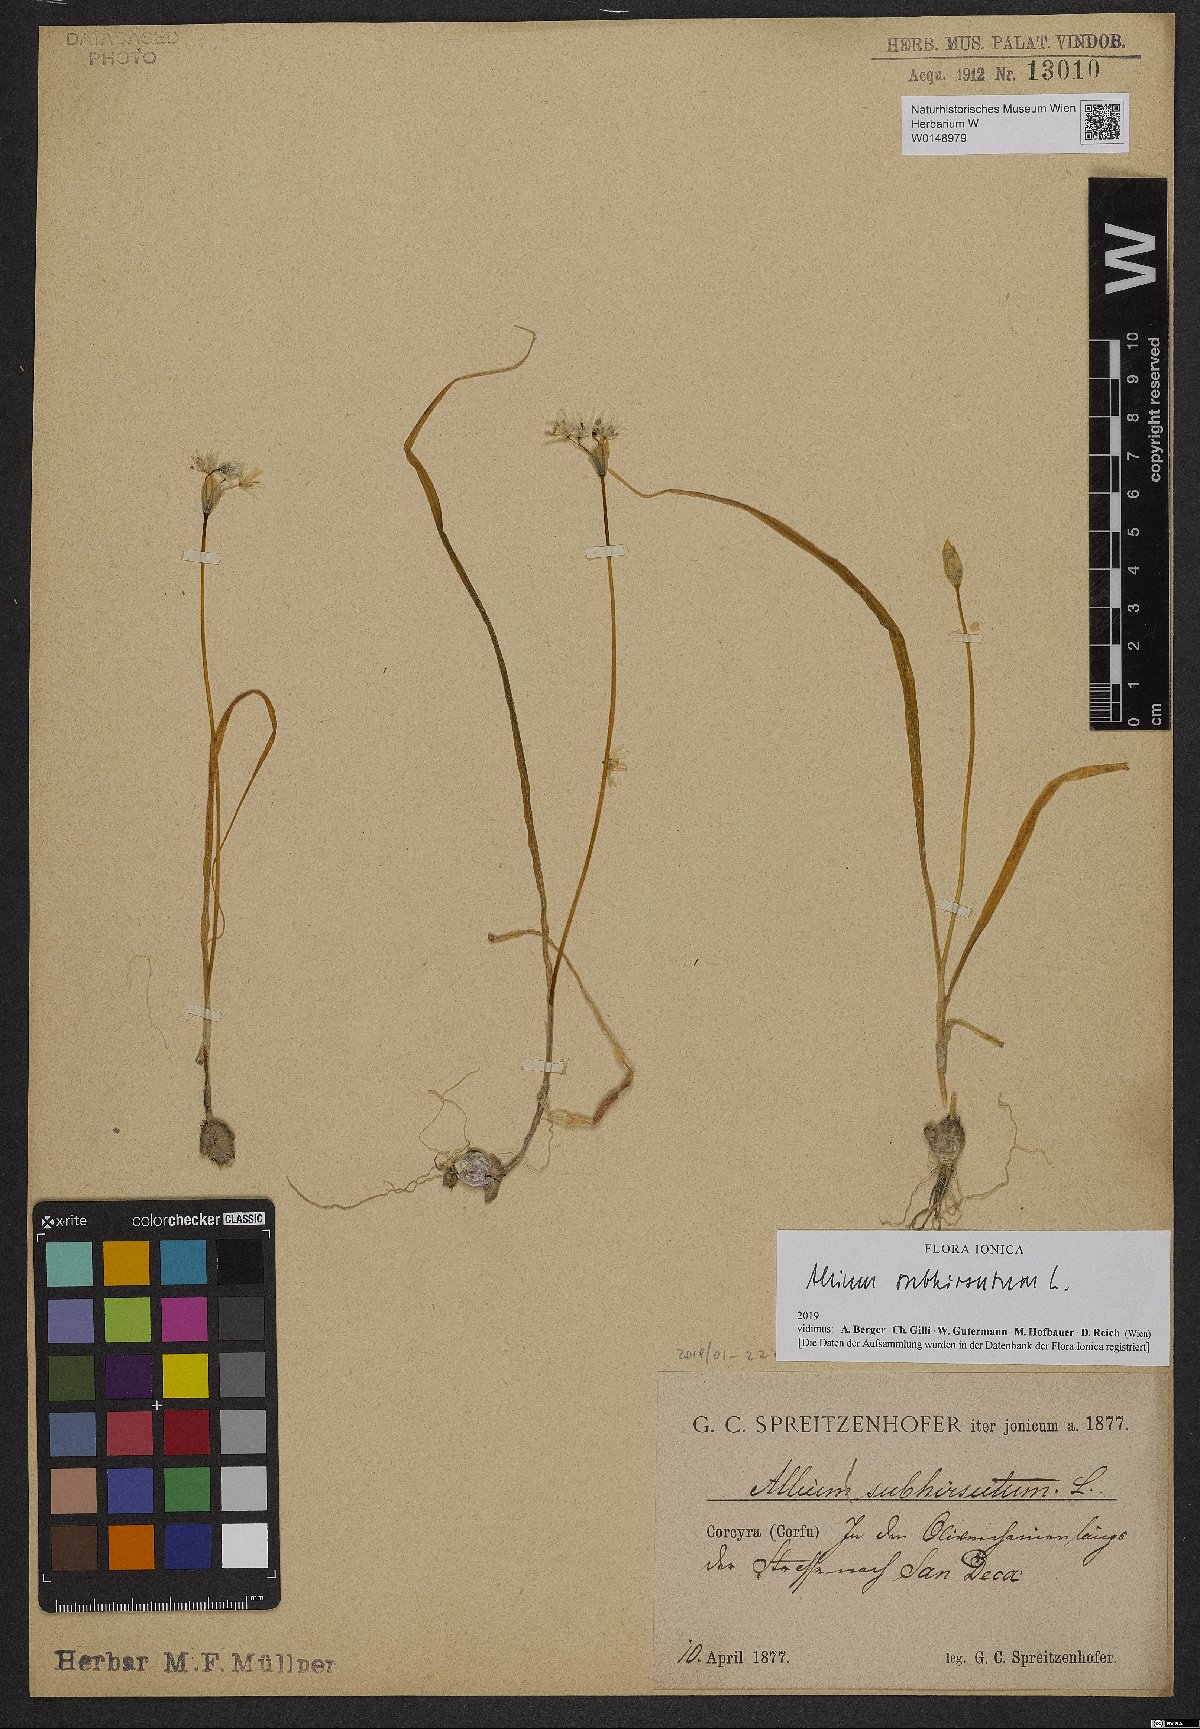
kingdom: Plantae
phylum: Tracheophyta
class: Liliopsida
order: Asparagales
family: Amaryllidaceae
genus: Allium
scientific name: Allium subhirsutum
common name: Hairy garlic
